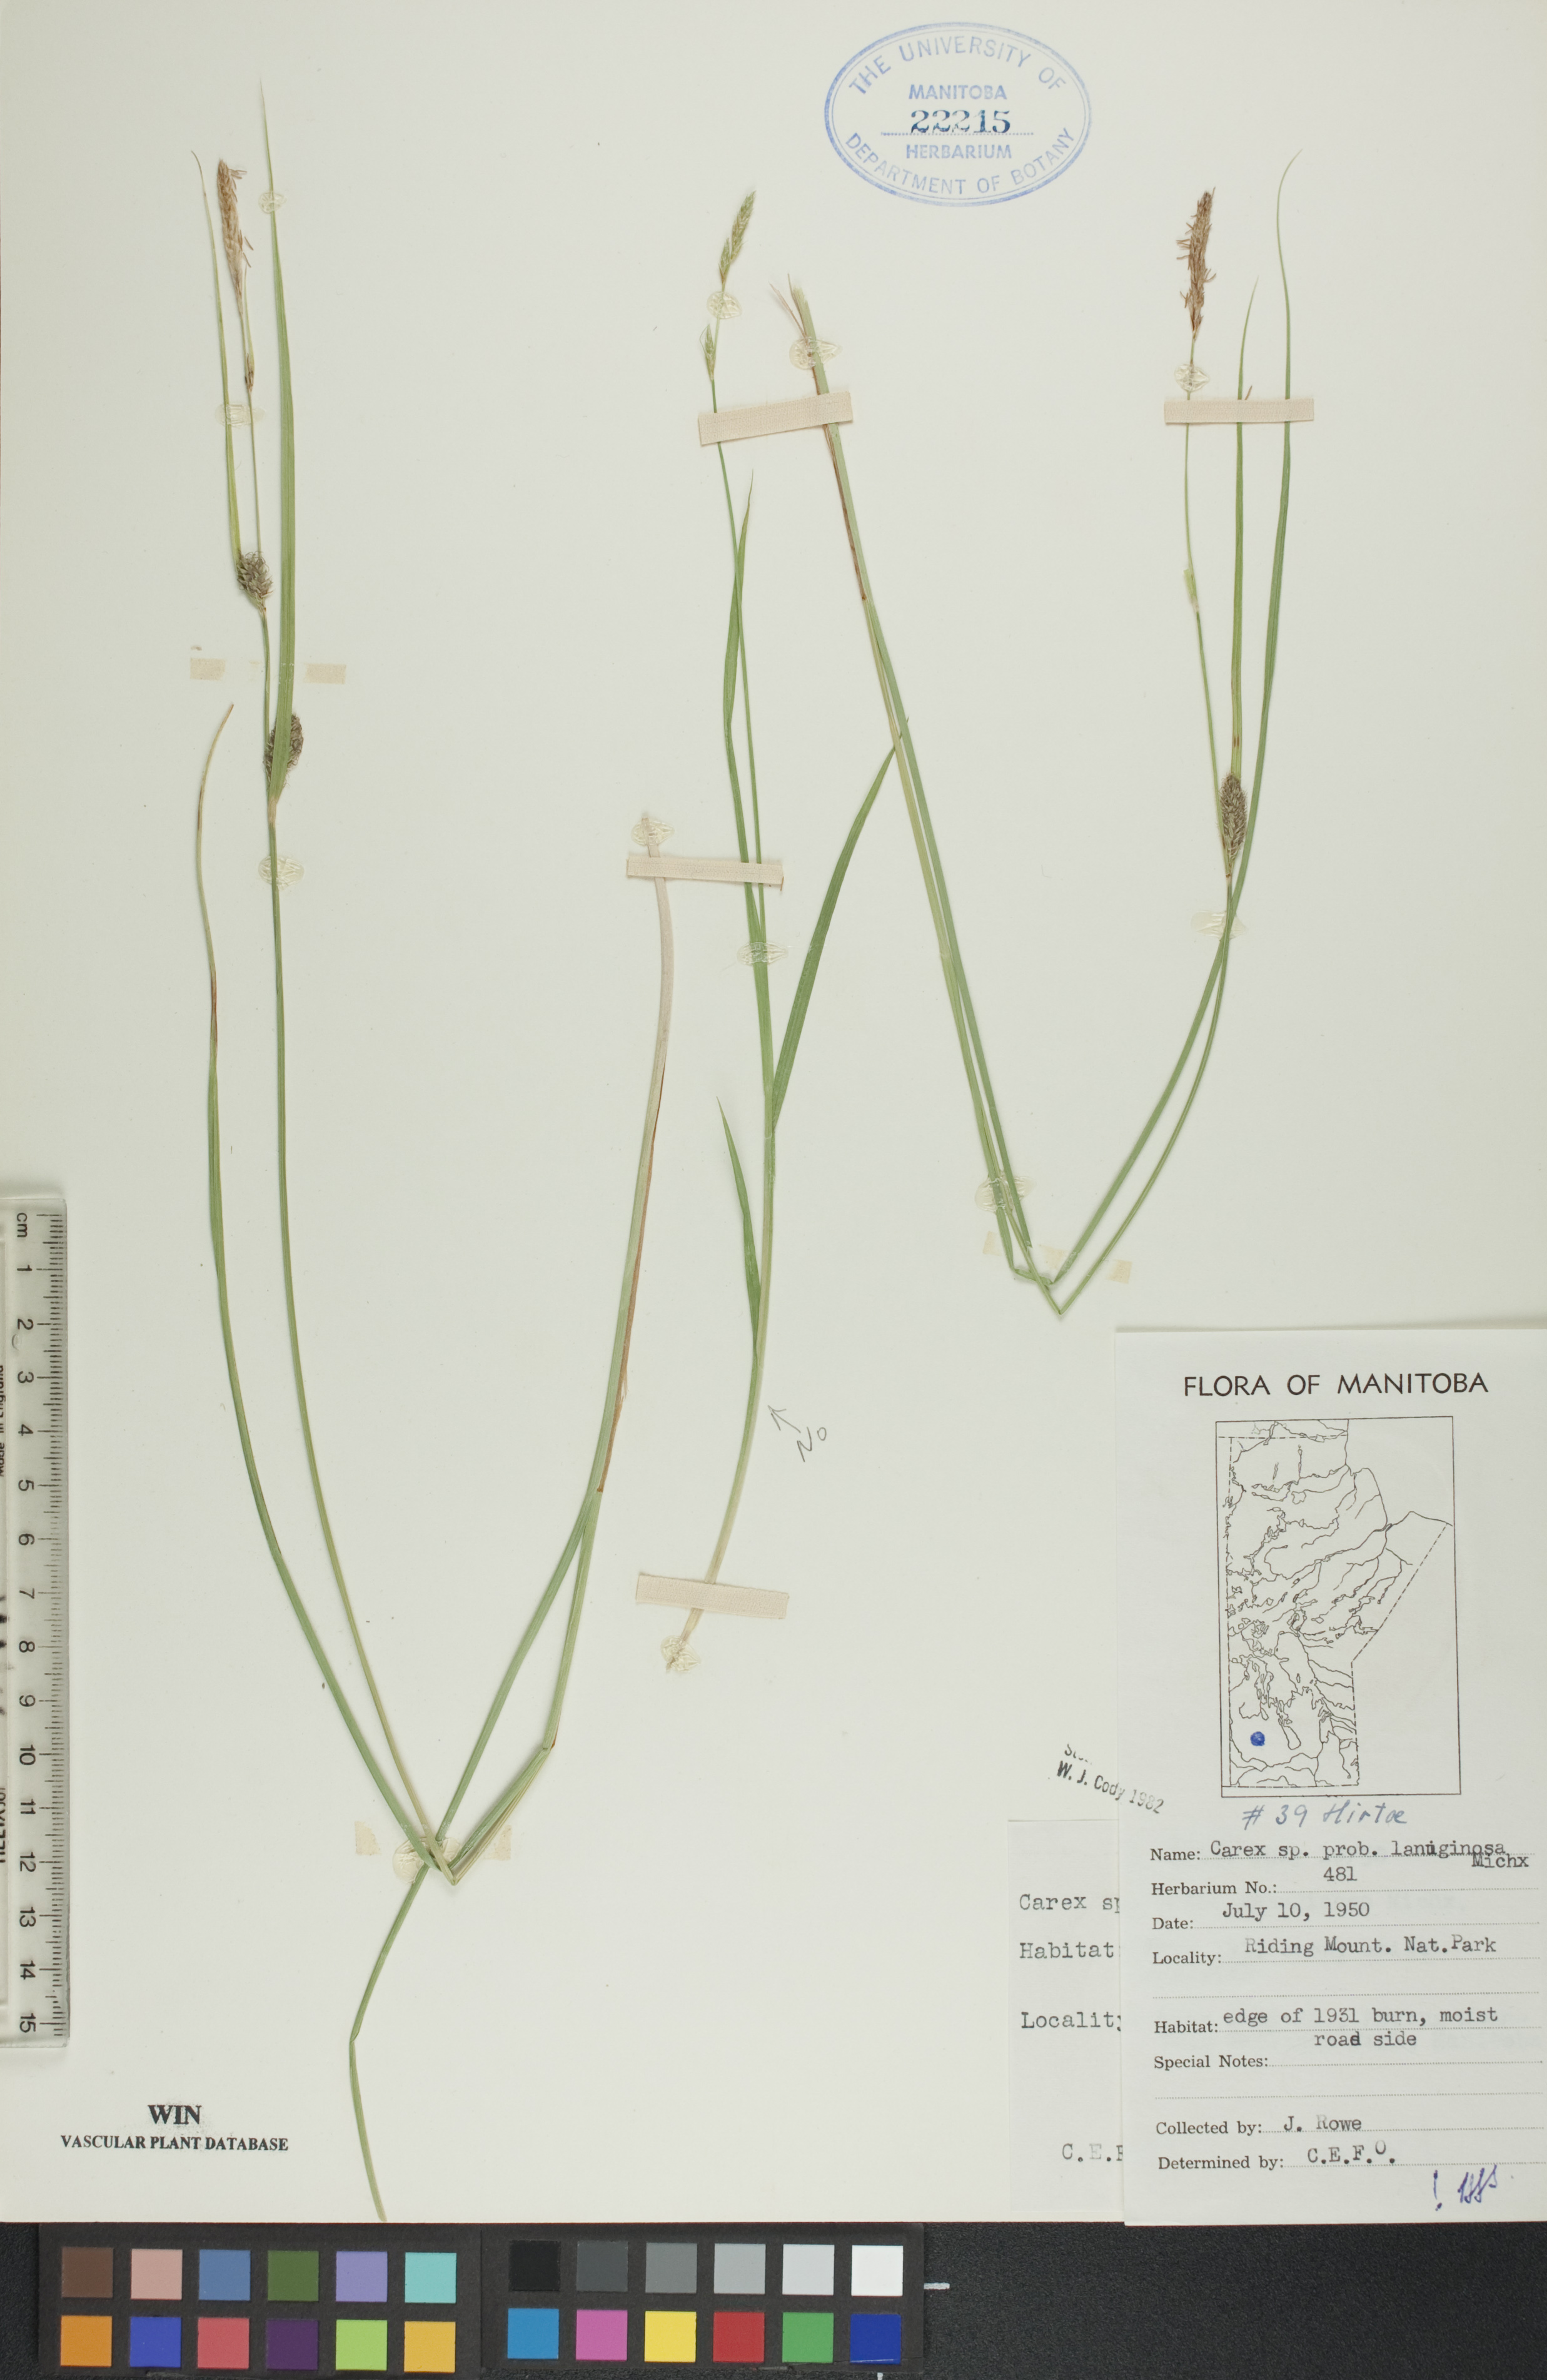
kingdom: Plantae
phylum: Tracheophyta
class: Liliopsida
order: Poales
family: Cyperaceae
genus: Carex
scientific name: Carex lasiocarpa
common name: Slender sedge
